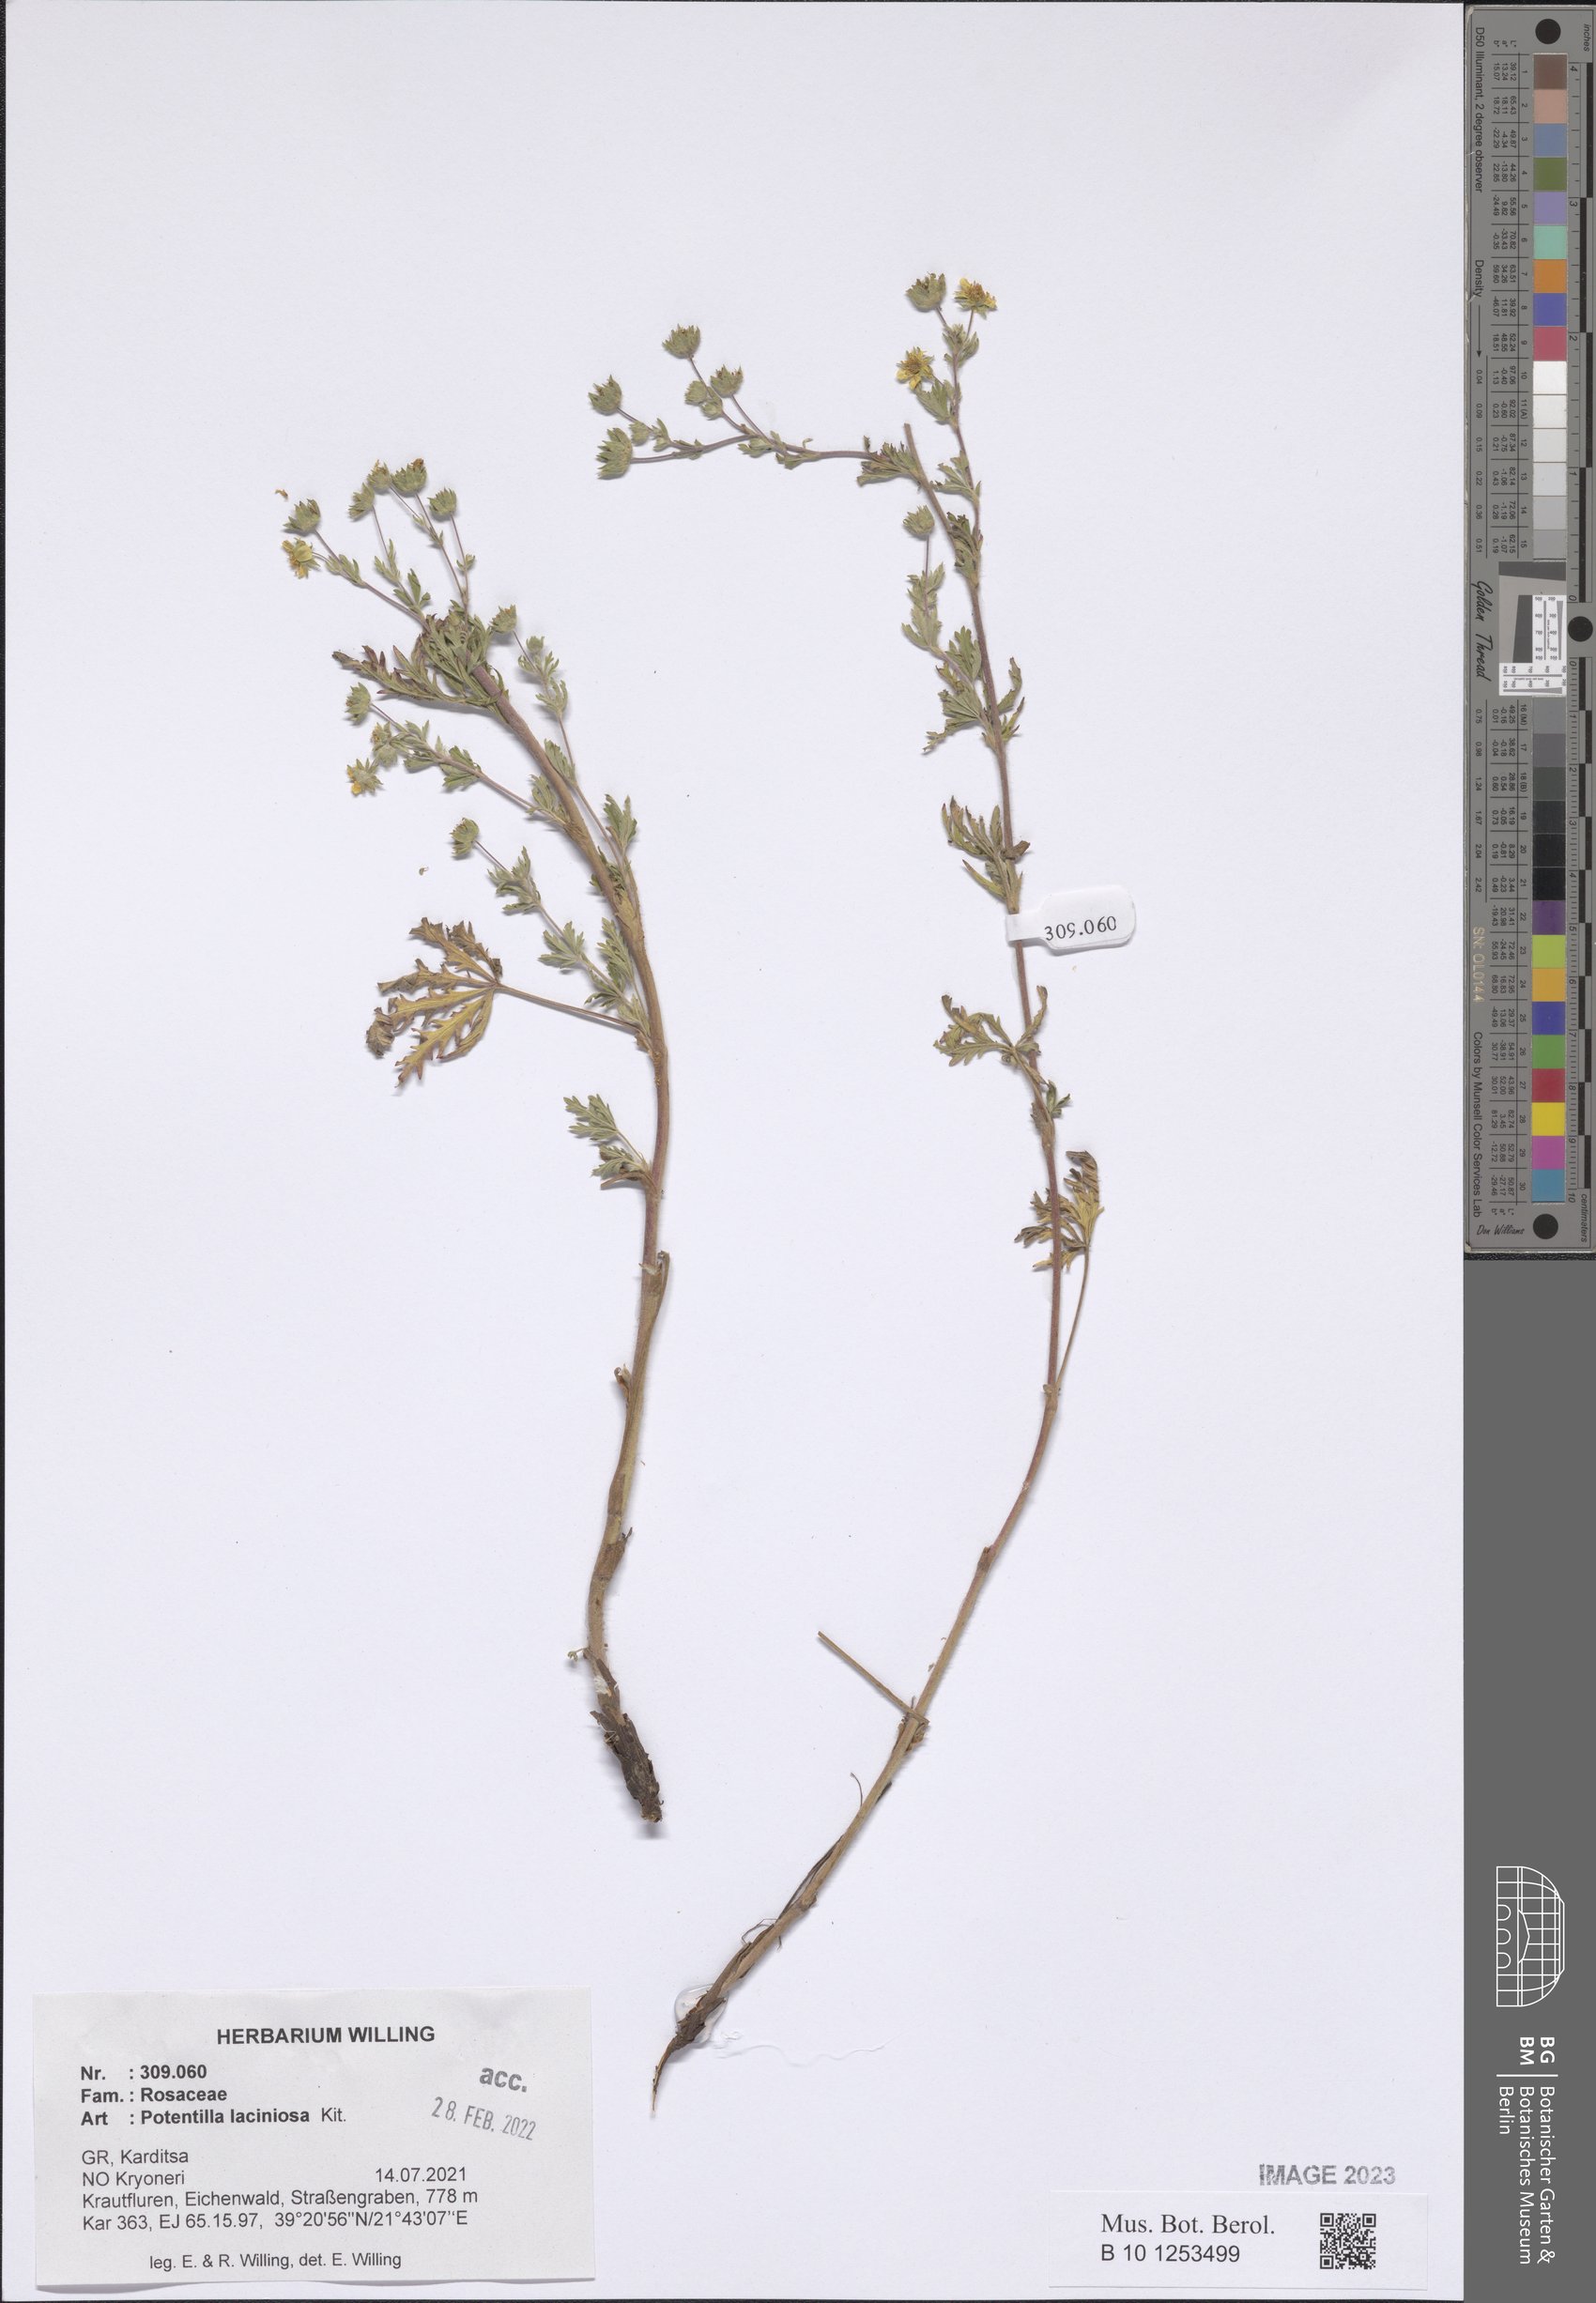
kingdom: Plantae
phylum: Tracheophyta
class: Magnoliopsida
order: Rosales
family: Rosaceae
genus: Potentilla
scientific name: Potentilla recta
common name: Sulphur cinquefoil
